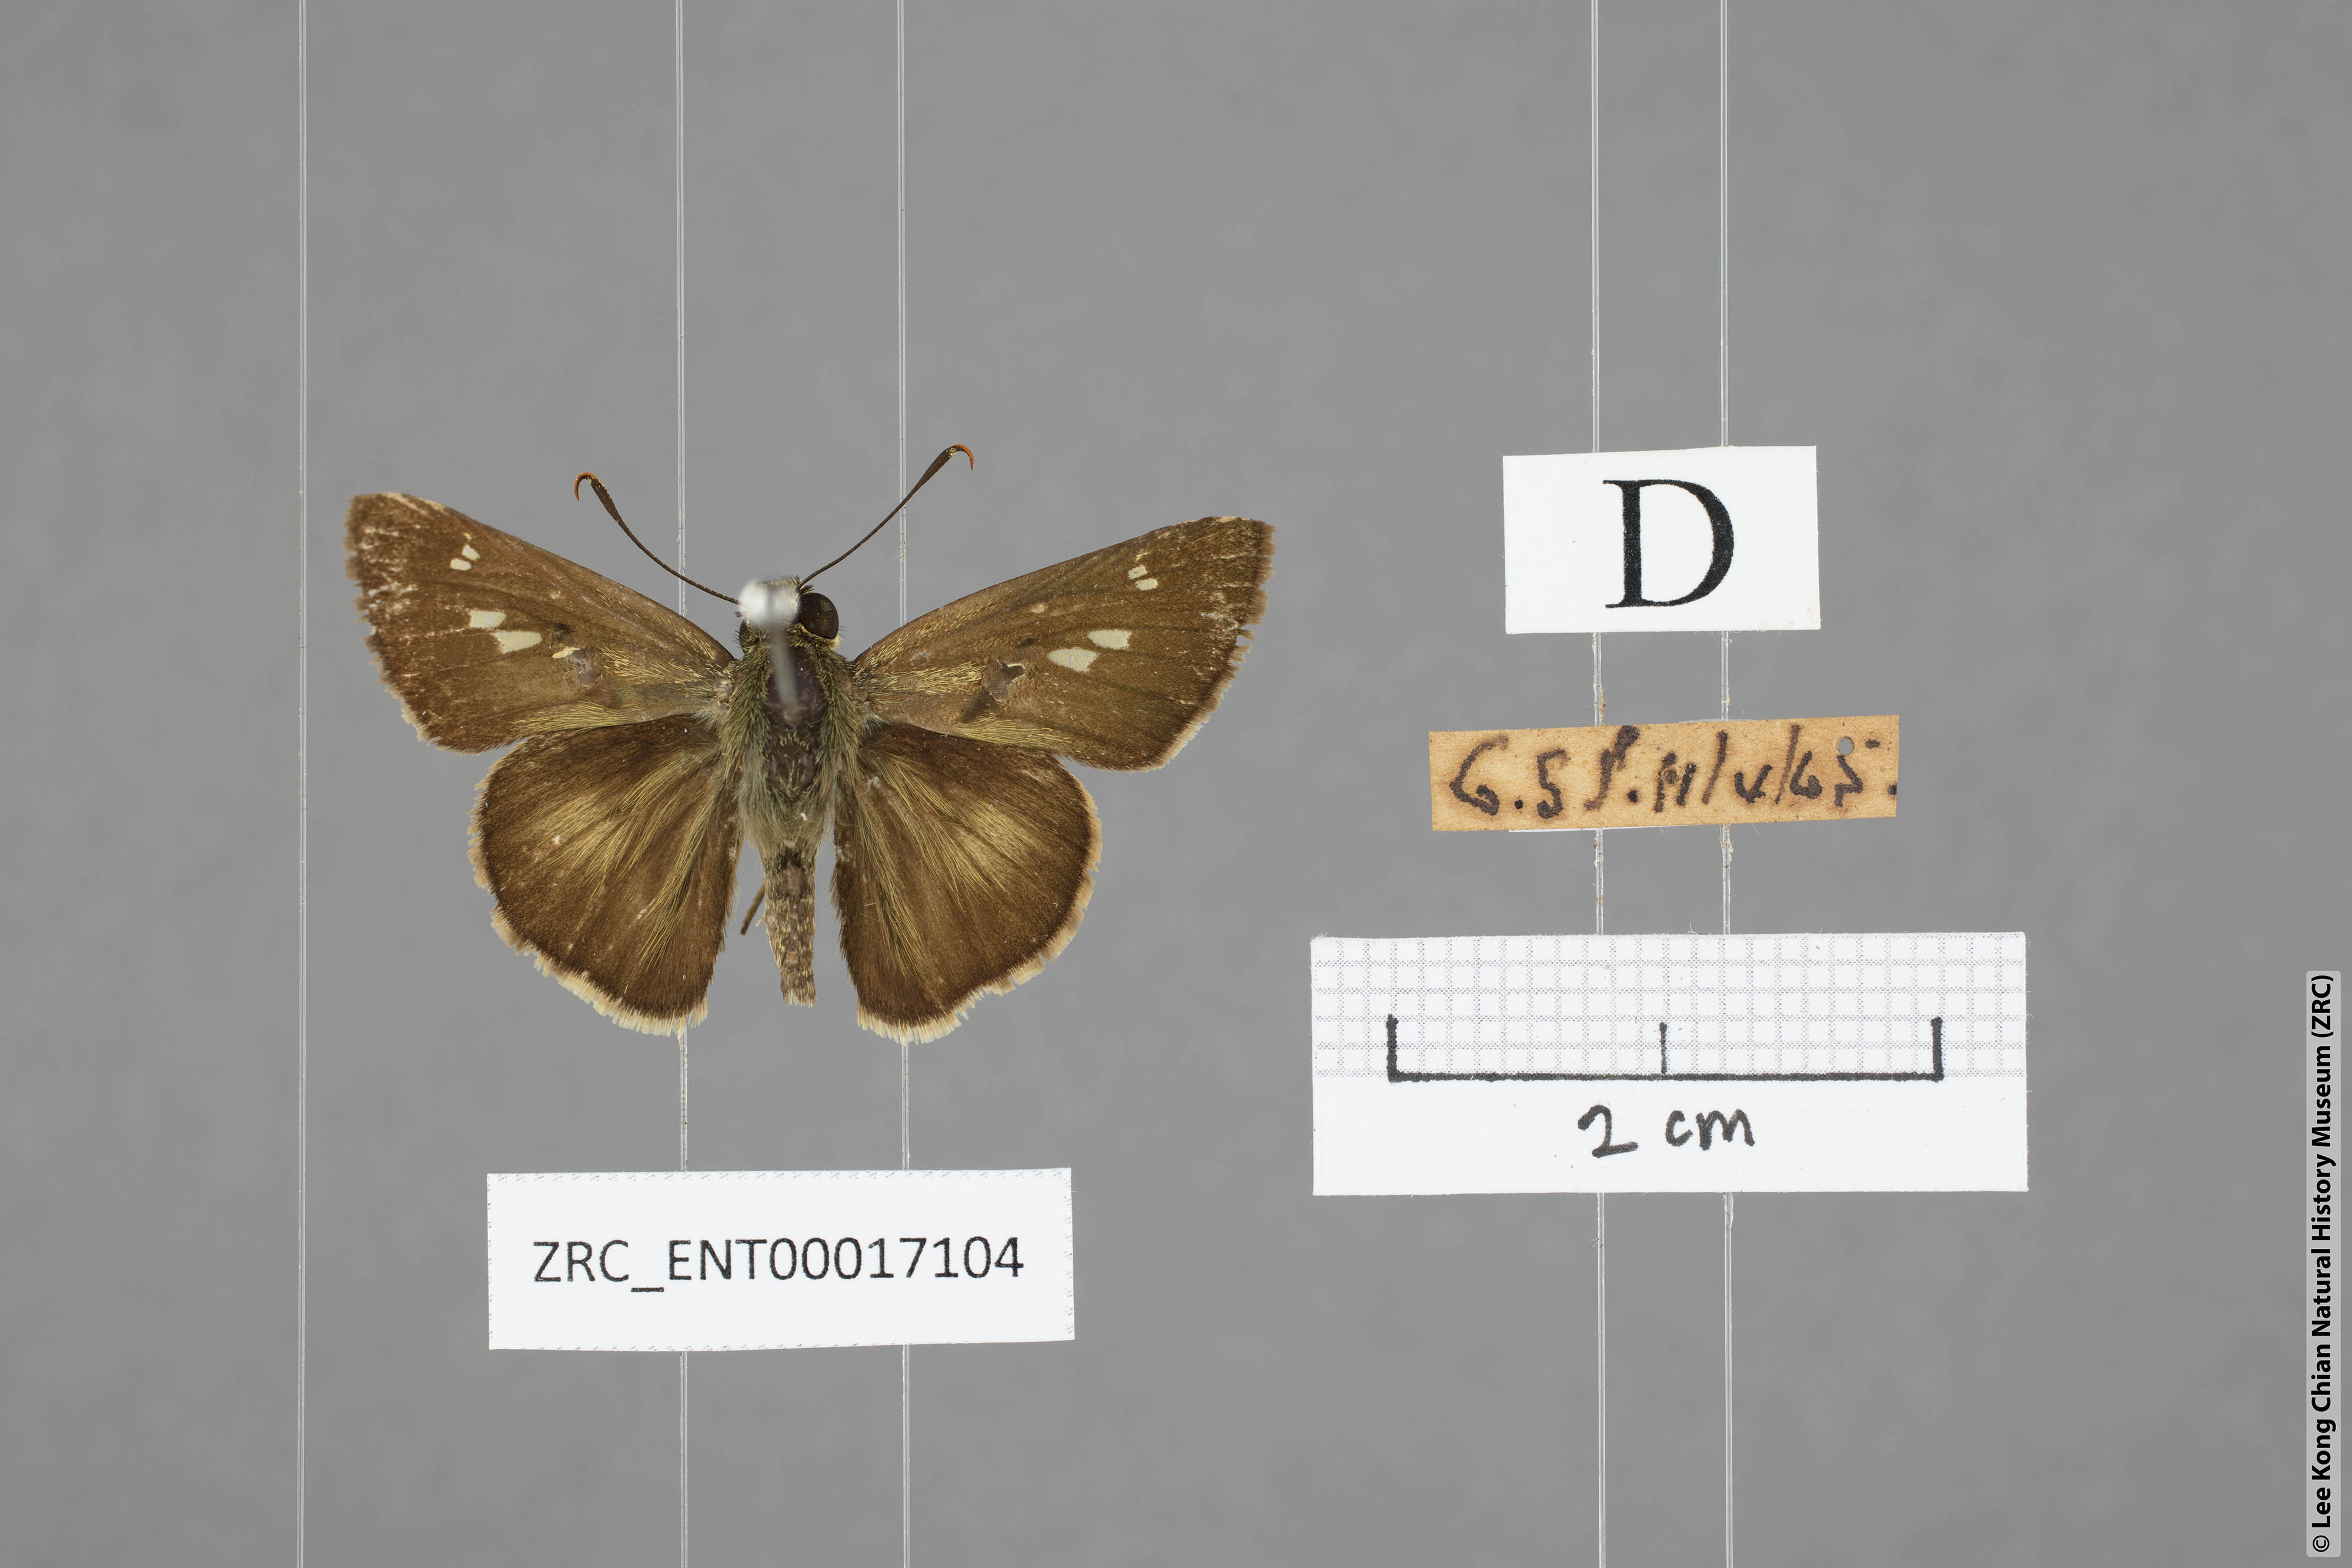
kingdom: Animalia
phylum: Arthropoda
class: Insecta
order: Lepidoptera
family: Hesperiidae
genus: Halpe
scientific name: Halpe zema
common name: Dark banded ace
